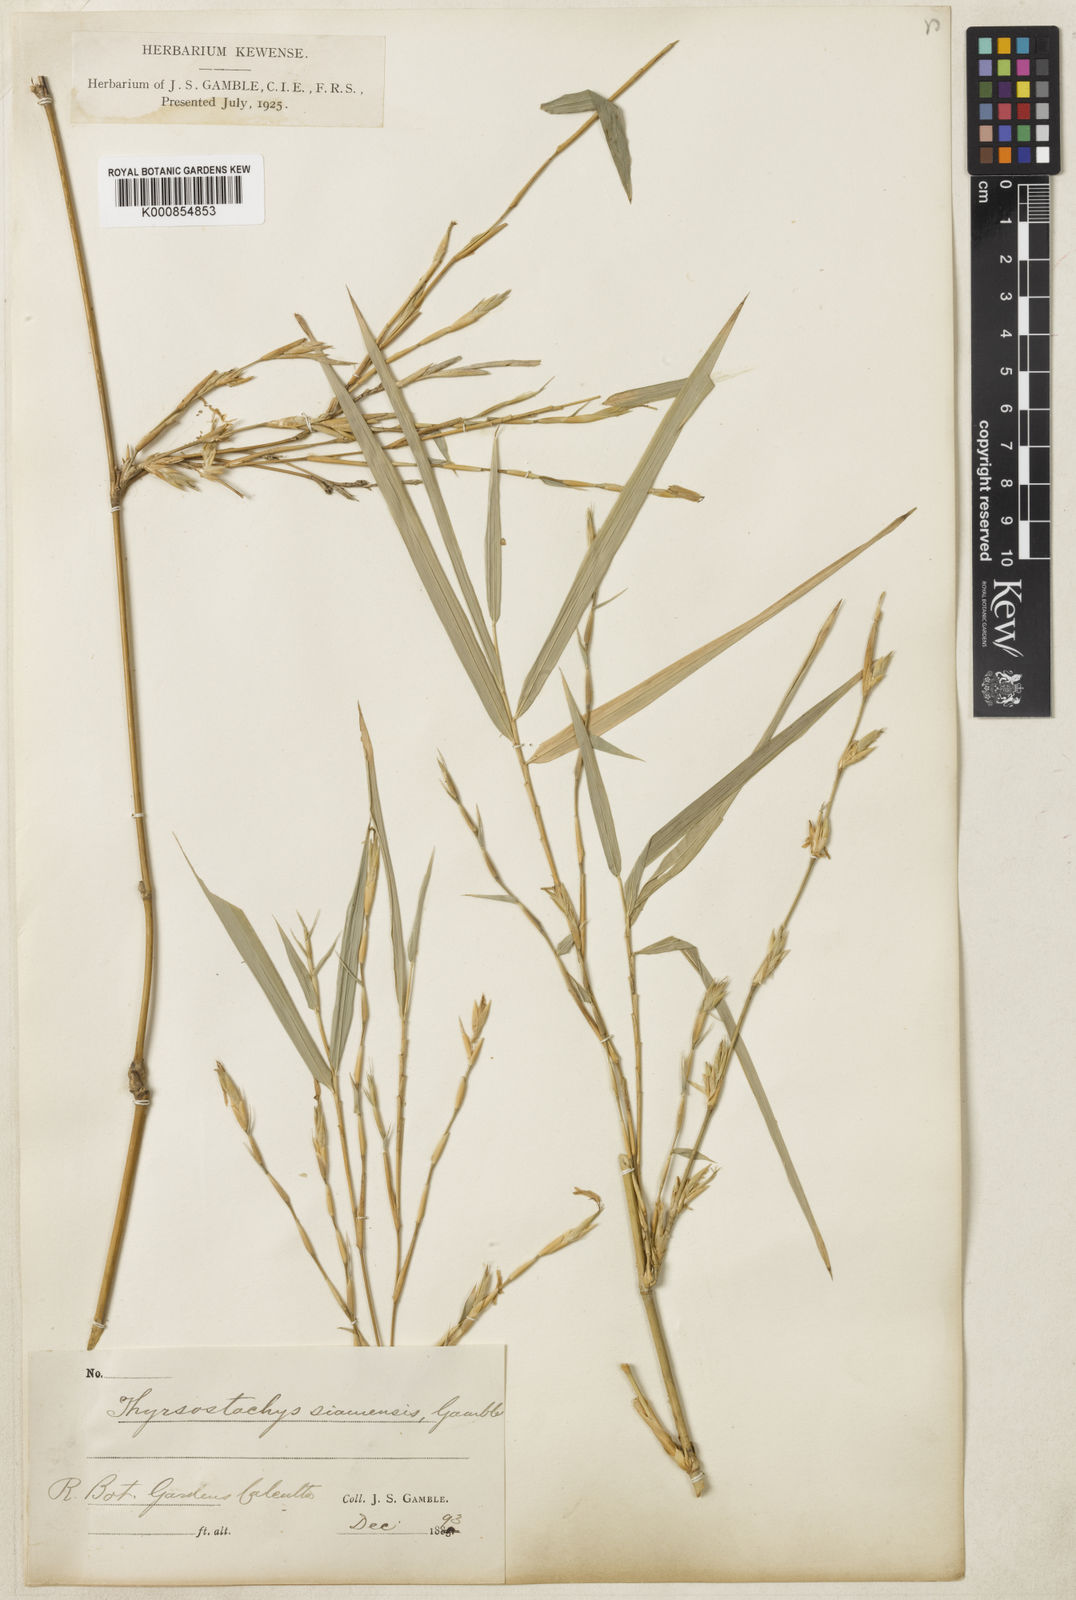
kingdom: Plantae
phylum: Tracheophyta
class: Liliopsida
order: Poales
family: Poaceae
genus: Thyrsostachys
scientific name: Thyrsostachys siamensis
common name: Thailand bamboo
